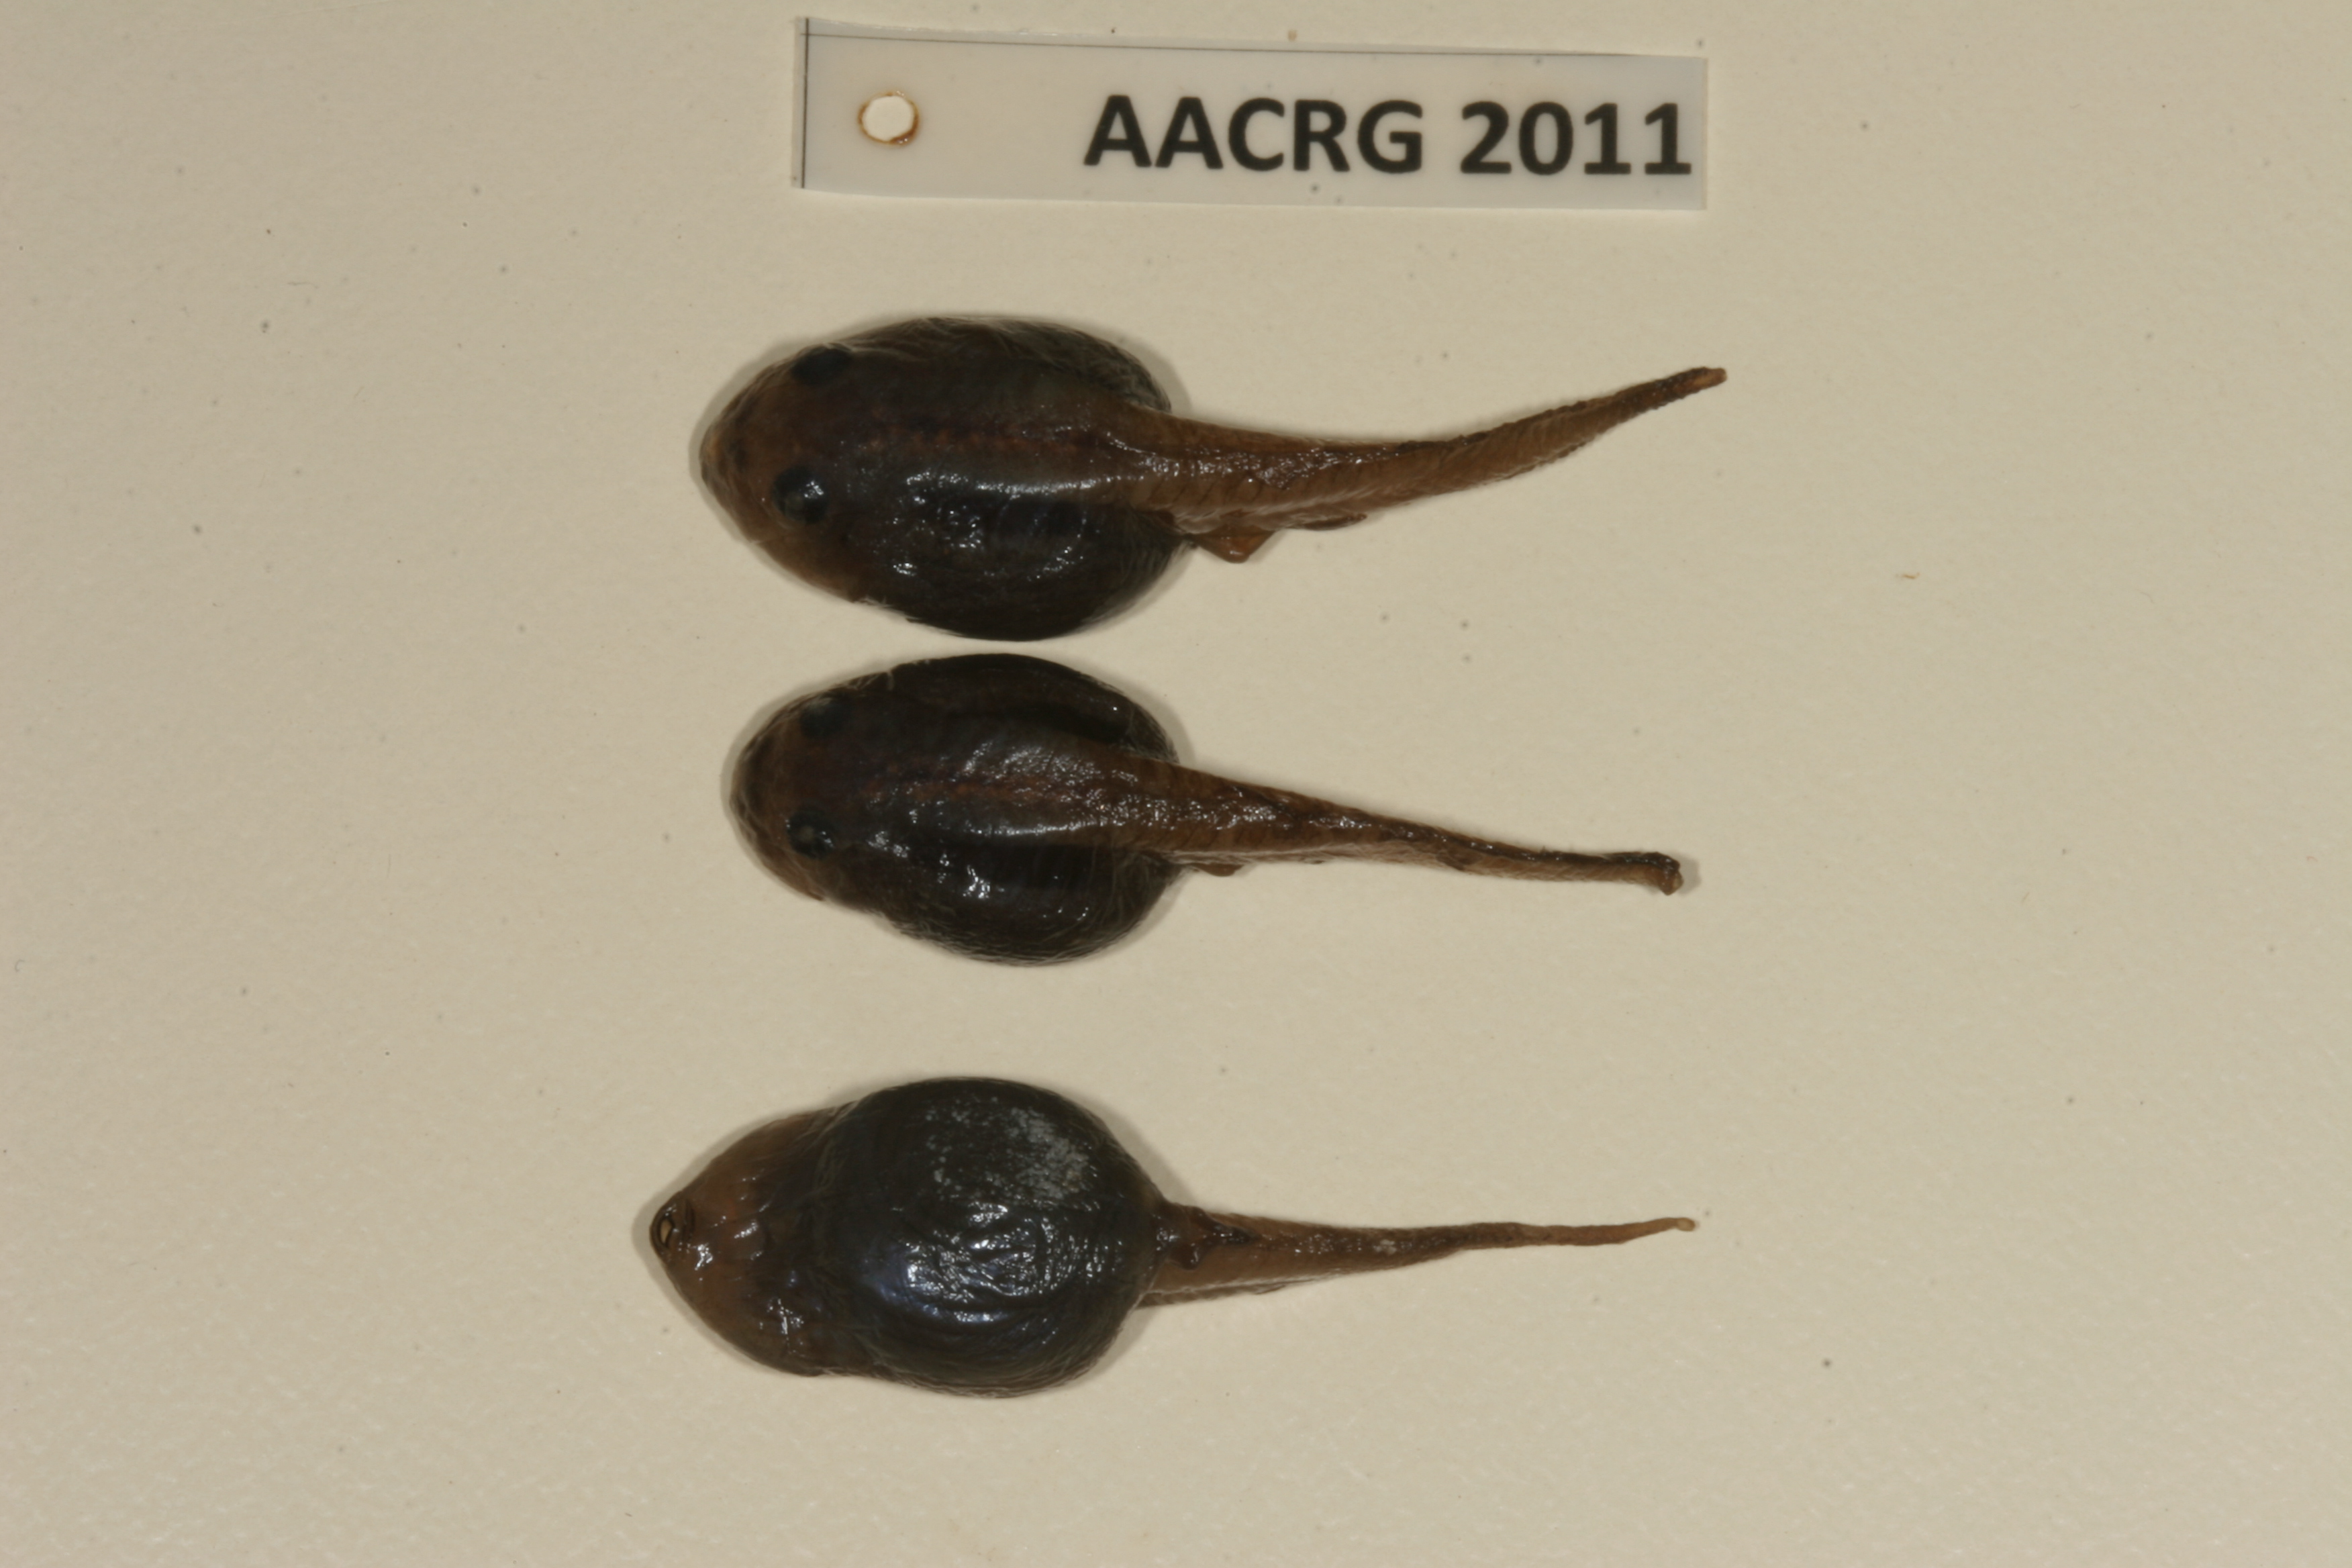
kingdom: Animalia
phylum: Chordata
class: Amphibia
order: Anura
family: Bufonidae
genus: Sclerophrys
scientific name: Sclerophrys garmani
